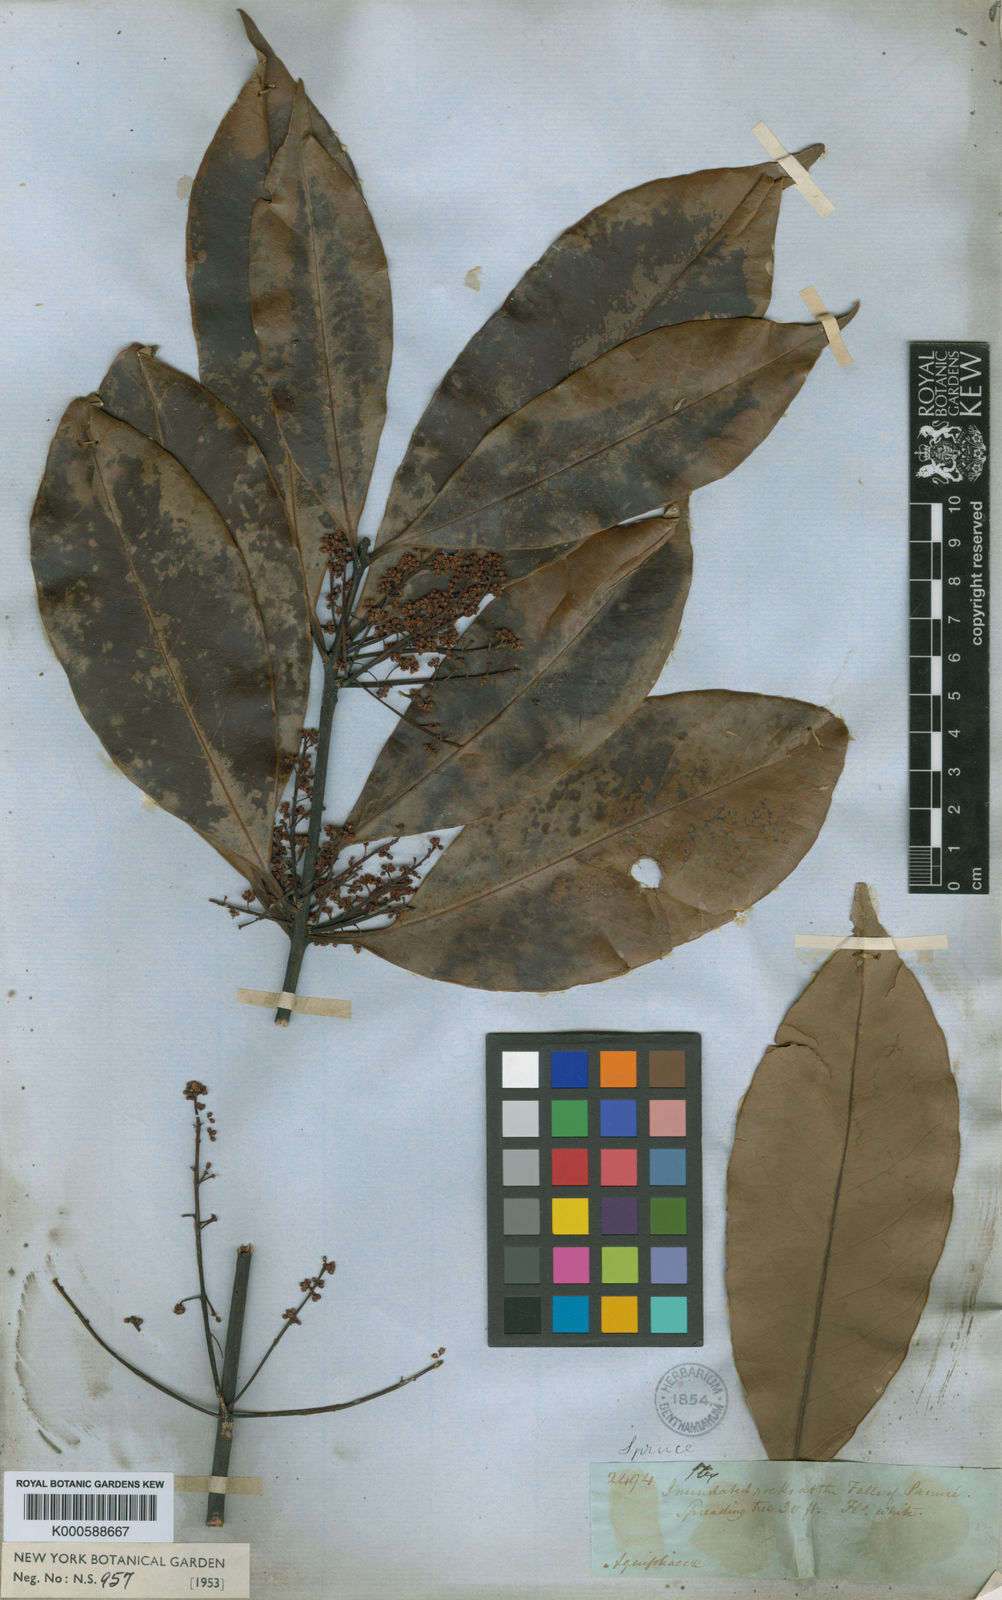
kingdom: Plantae
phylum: Tracheophyta
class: Magnoliopsida
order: Aquifoliales
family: Aquifoliaceae
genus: Ilex
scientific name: Ilex laureola
